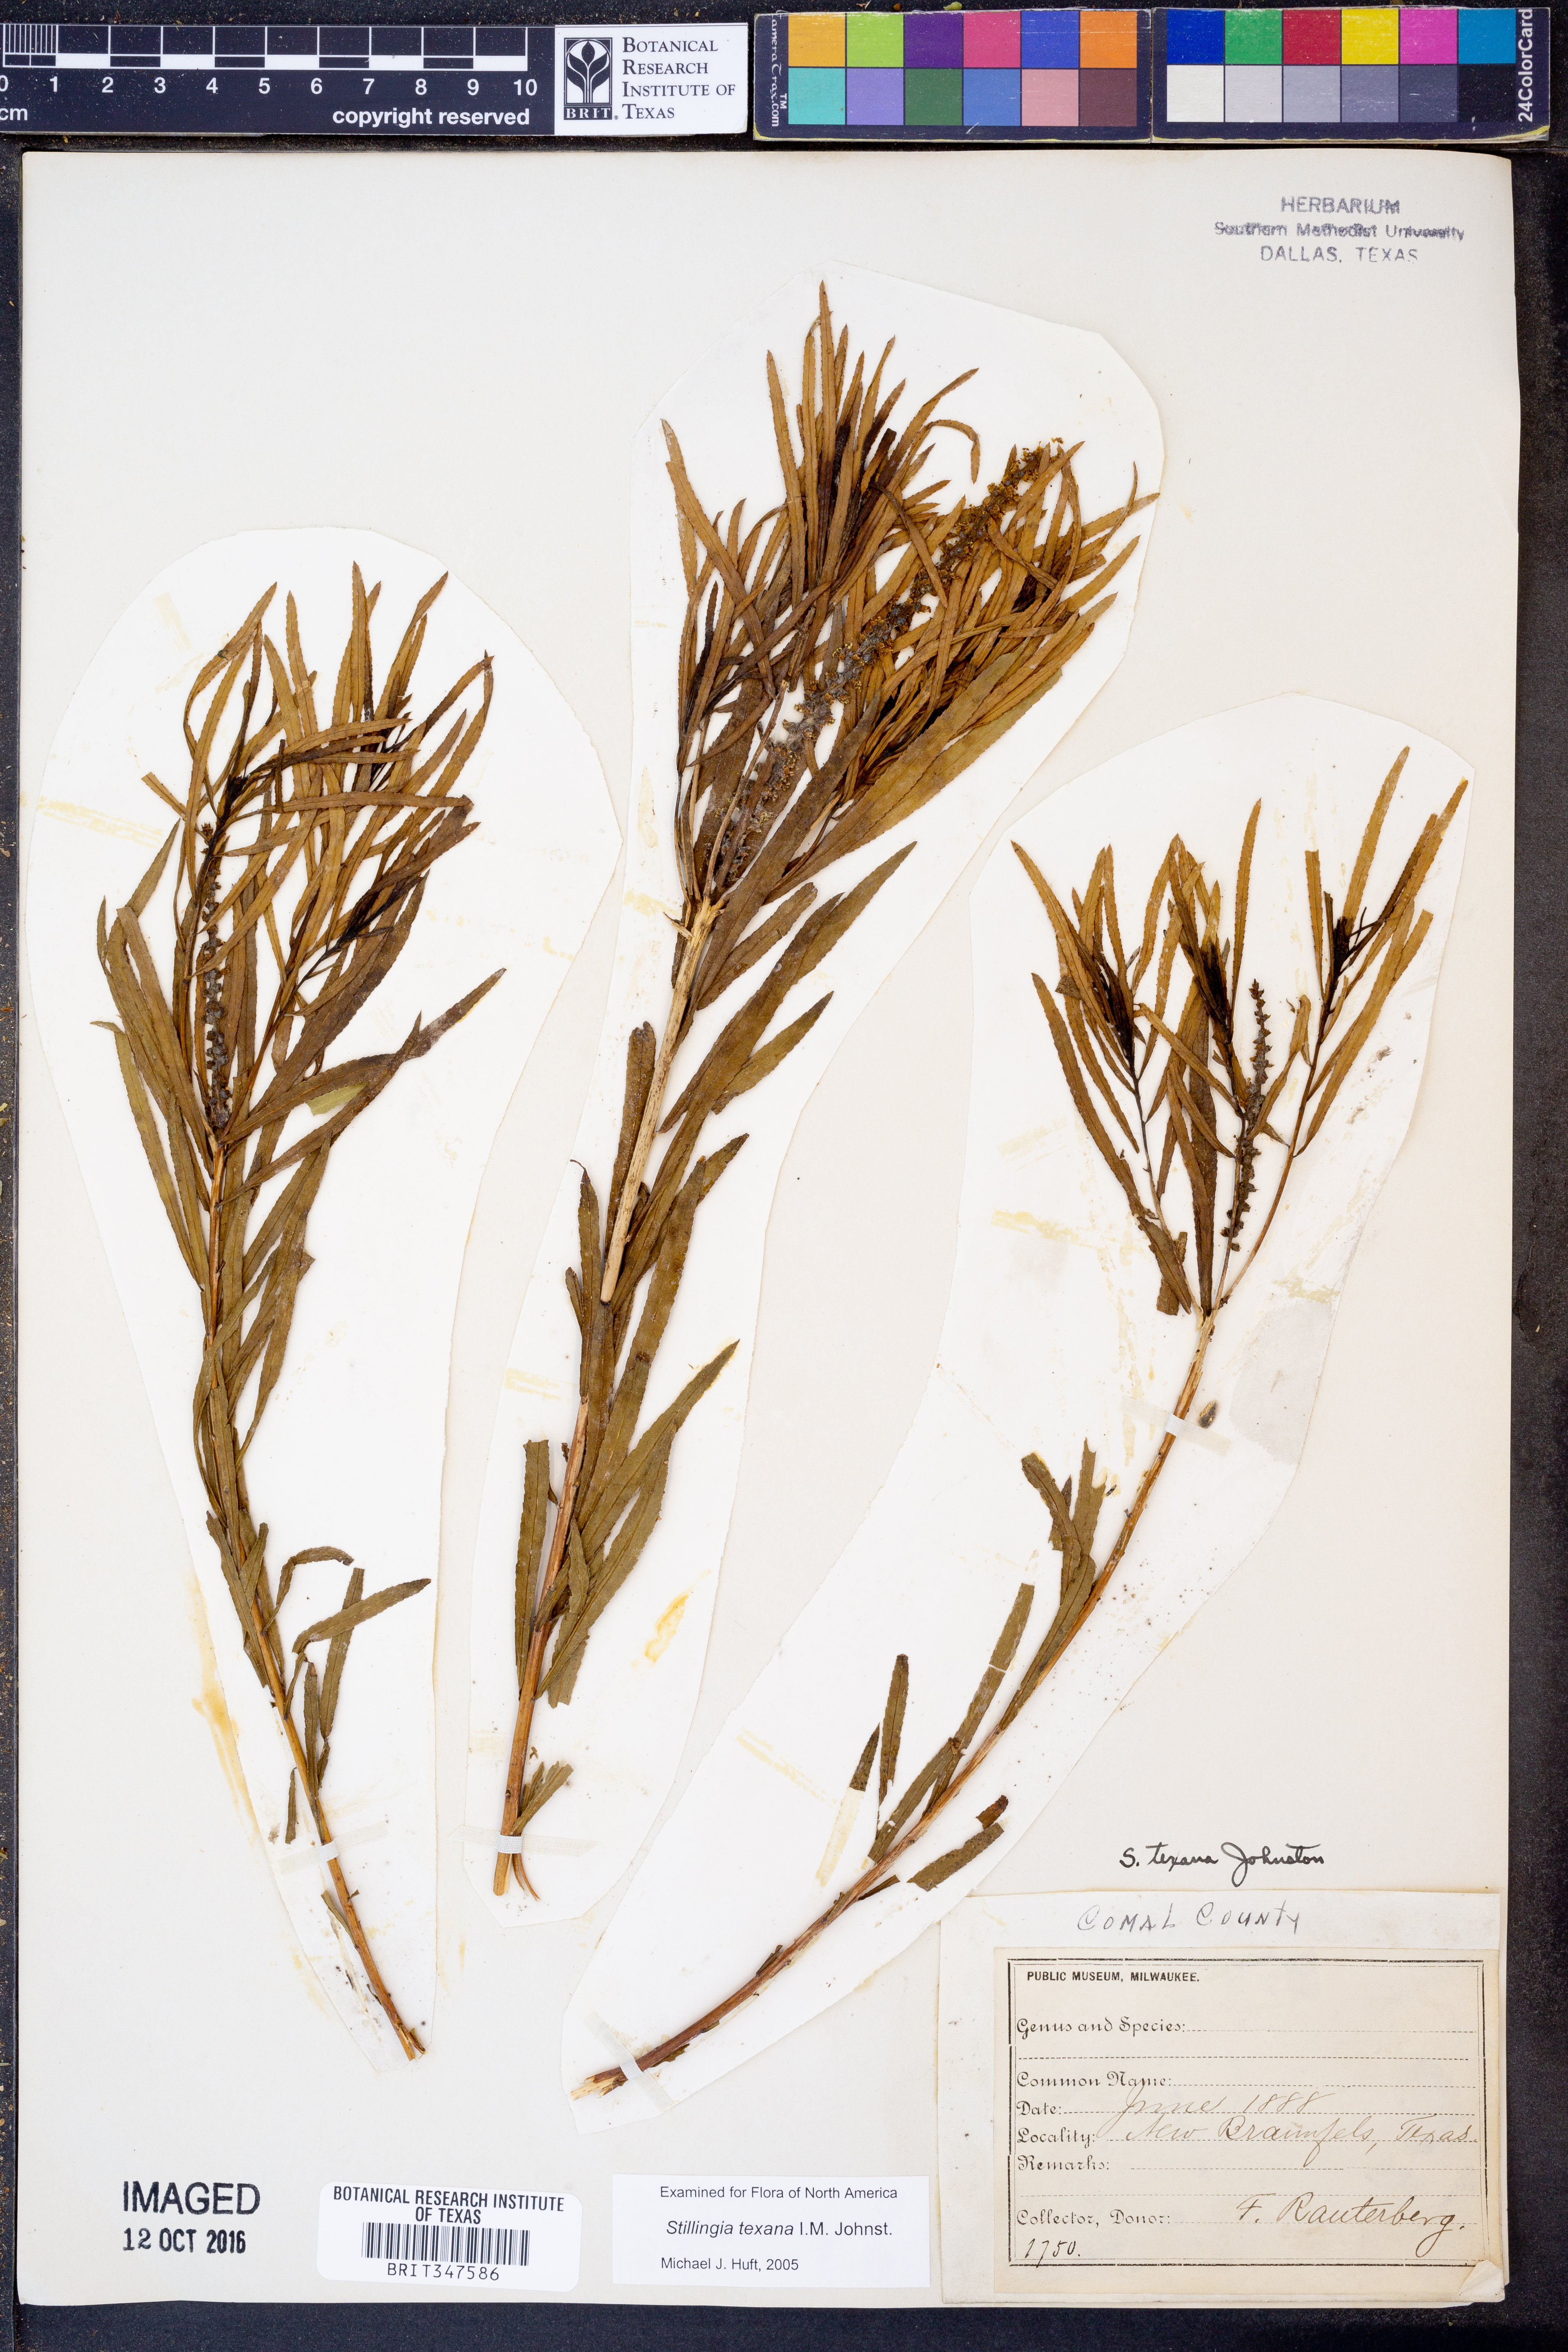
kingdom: Plantae
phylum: Tracheophyta
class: Magnoliopsida
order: Malpighiales
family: Euphorbiaceae
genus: Stillingia
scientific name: Stillingia texana
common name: Texas stillingia
